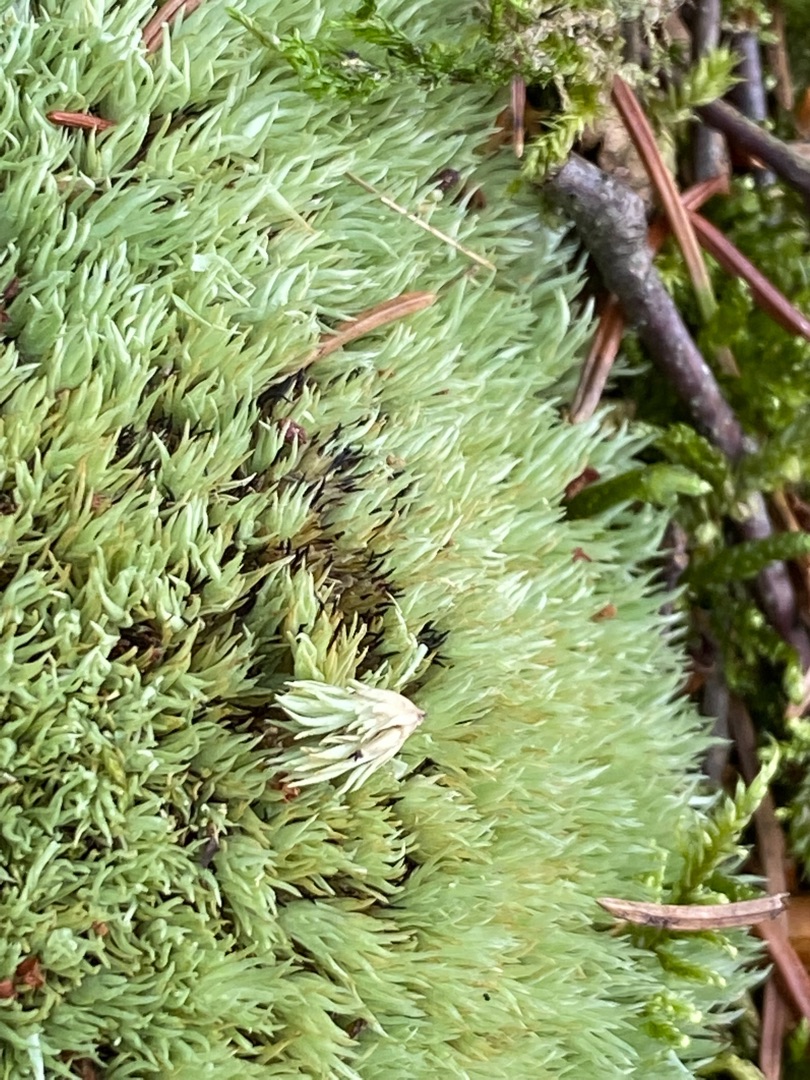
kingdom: Plantae
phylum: Bryophyta
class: Bryopsida
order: Dicranales
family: Leucobryaceae
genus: Leucobryum
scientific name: Leucobryum glaucum
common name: Almindelig hvidmos
